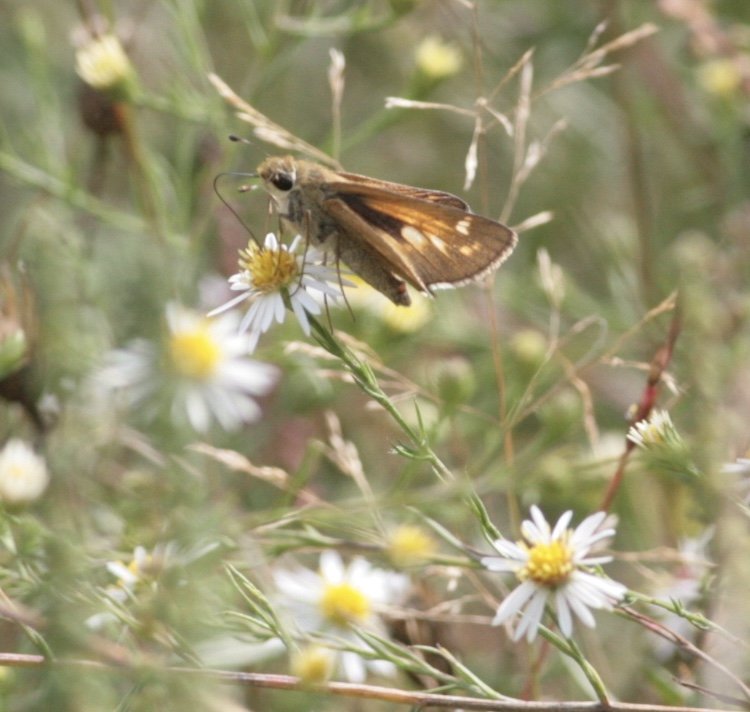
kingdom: Animalia
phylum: Arthropoda
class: Insecta
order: Lepidoptera
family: Hesperiidae
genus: Atalopedes
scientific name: Atalopedes campestris
